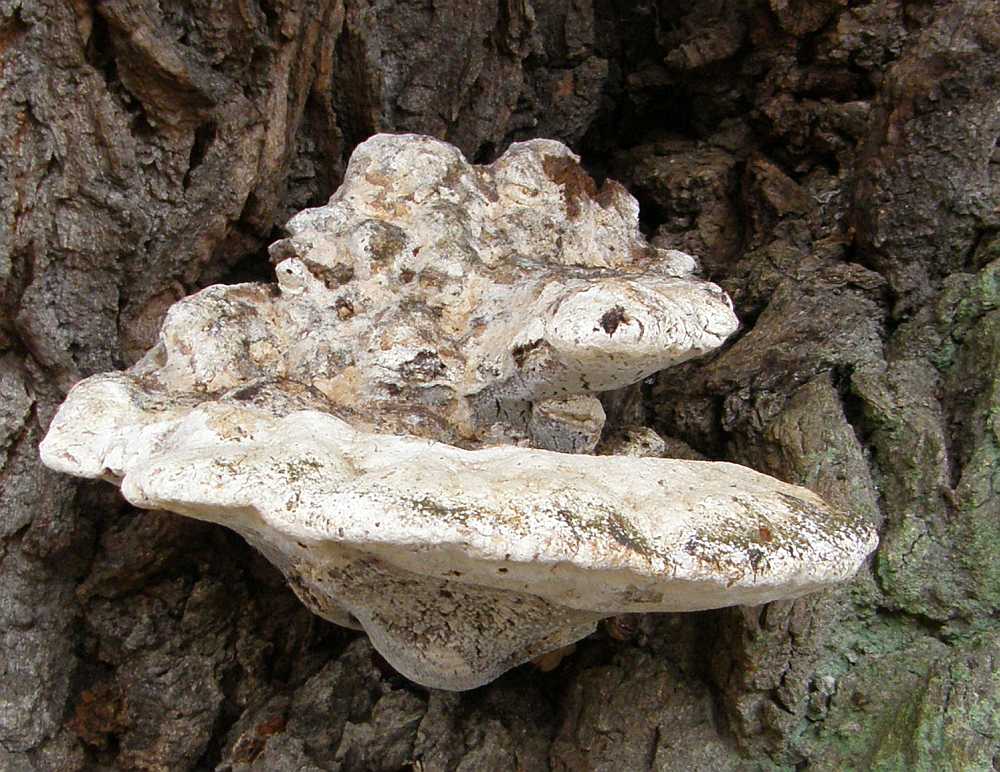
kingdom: Fungi
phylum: Basidiomycota
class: Agaricomycetes
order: Hymenochaetales
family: Hymenochaetaceae
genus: Pseudoinonotus
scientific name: Pseudoinonotus dryadeus
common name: ege-spejlporesvamp
